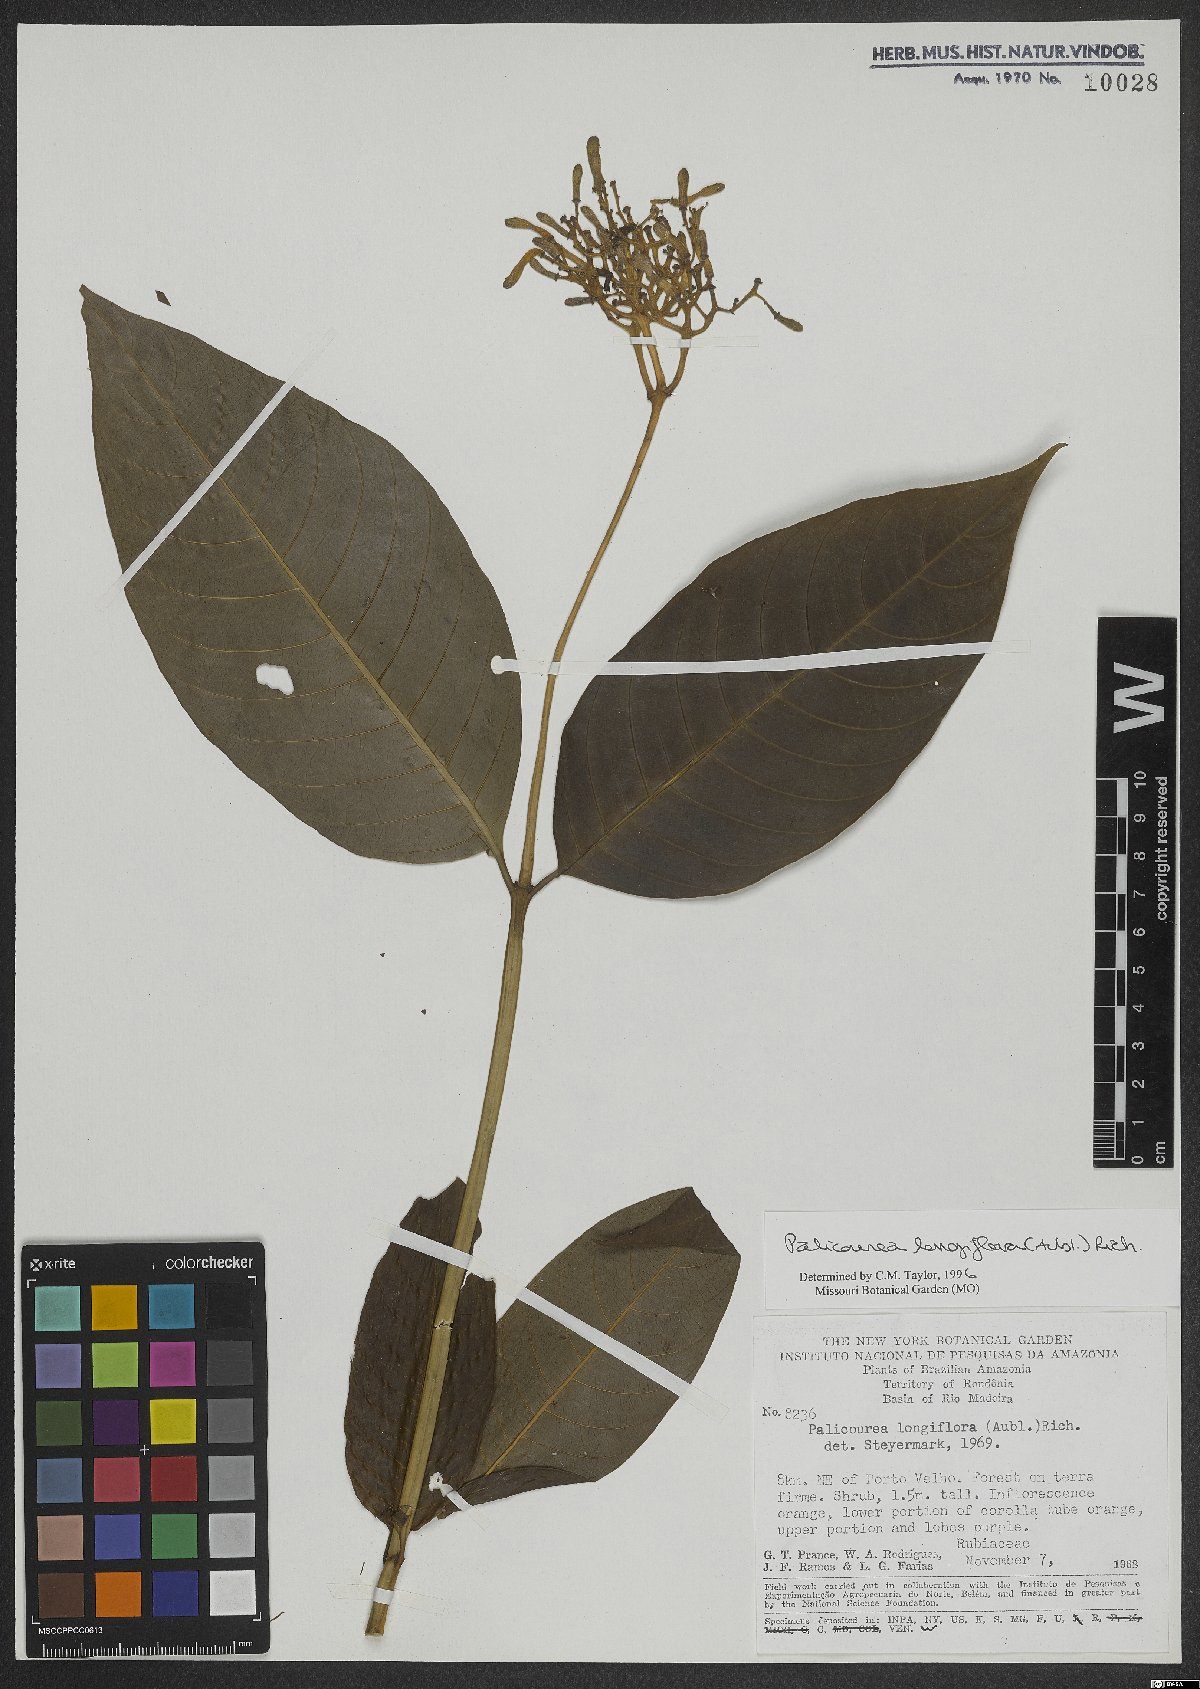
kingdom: Plantae
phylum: Tracheophyta
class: Magnoliopsida
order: Gentianales
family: Rubiaceae
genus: Palicourea
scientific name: Palicourea longiflora
